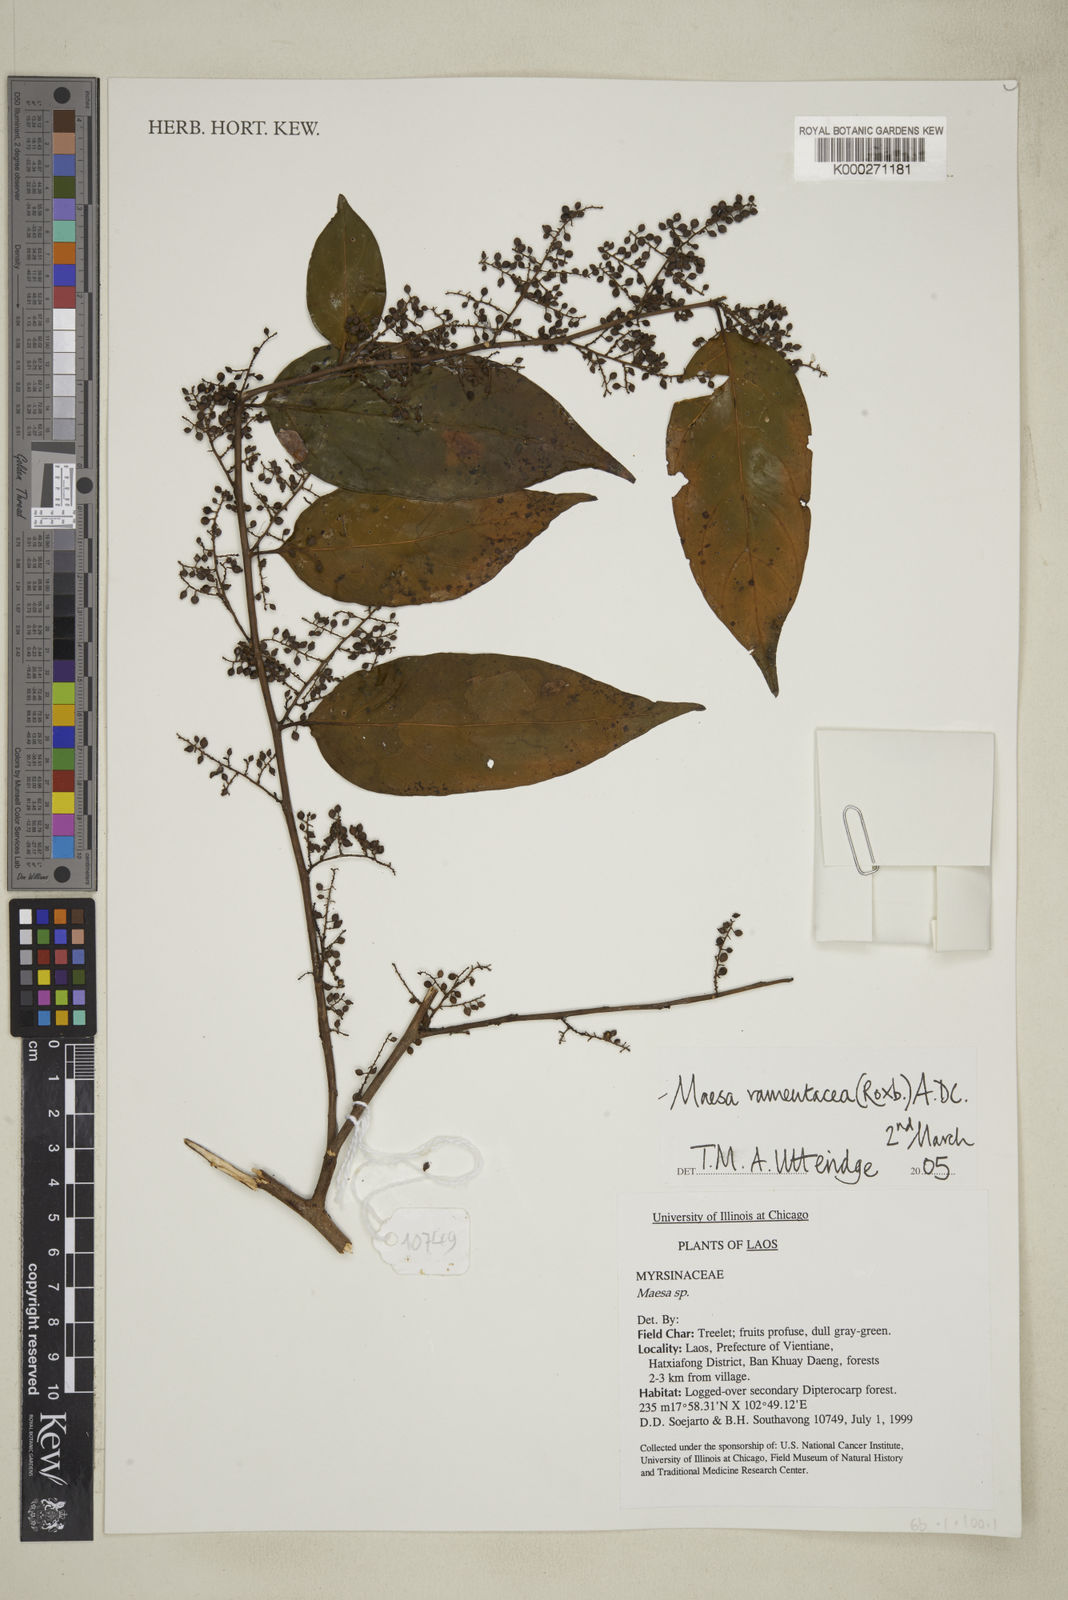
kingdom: Plantae
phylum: Tracheophyta
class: Magnoliopsida
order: Ericales
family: Primulaceae
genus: Maesa
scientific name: Maesa ramentacea
